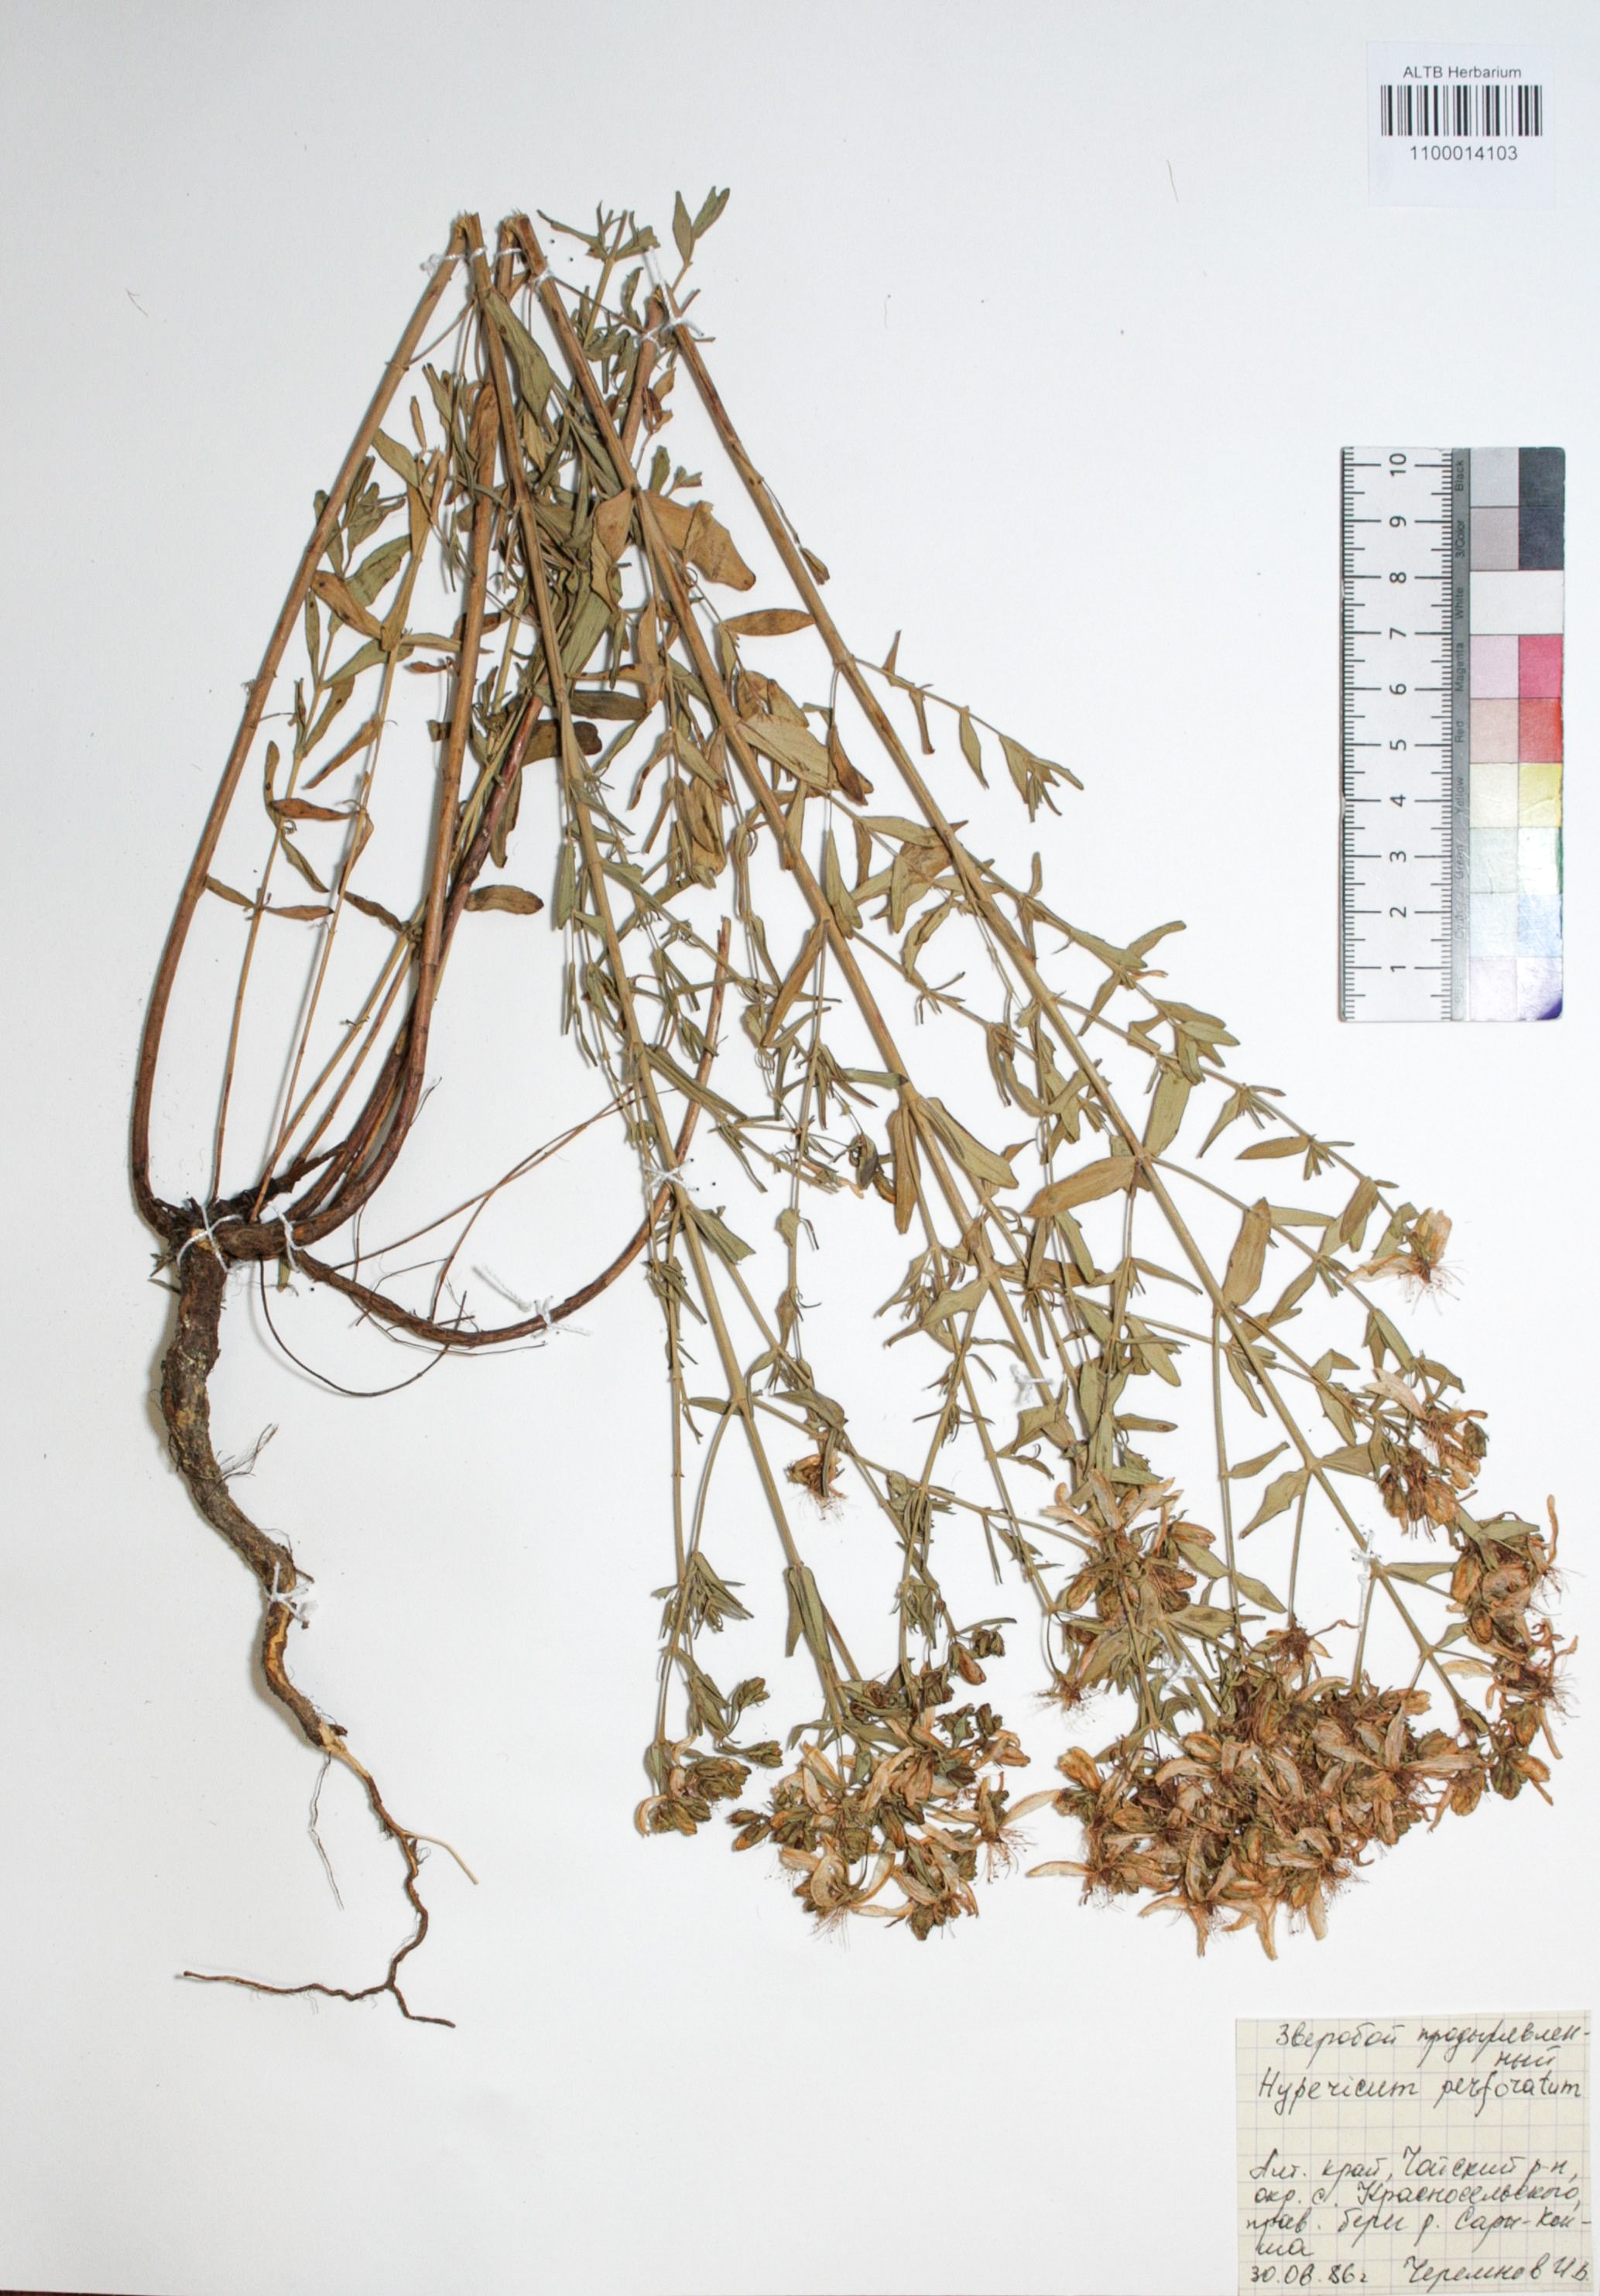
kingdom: Plantae
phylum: Tracheophyta
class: Magnoliopsida
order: Malpighiales
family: Hypericaceae
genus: Hypericum
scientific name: Hypericum perforatum
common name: Common st. johnswort
